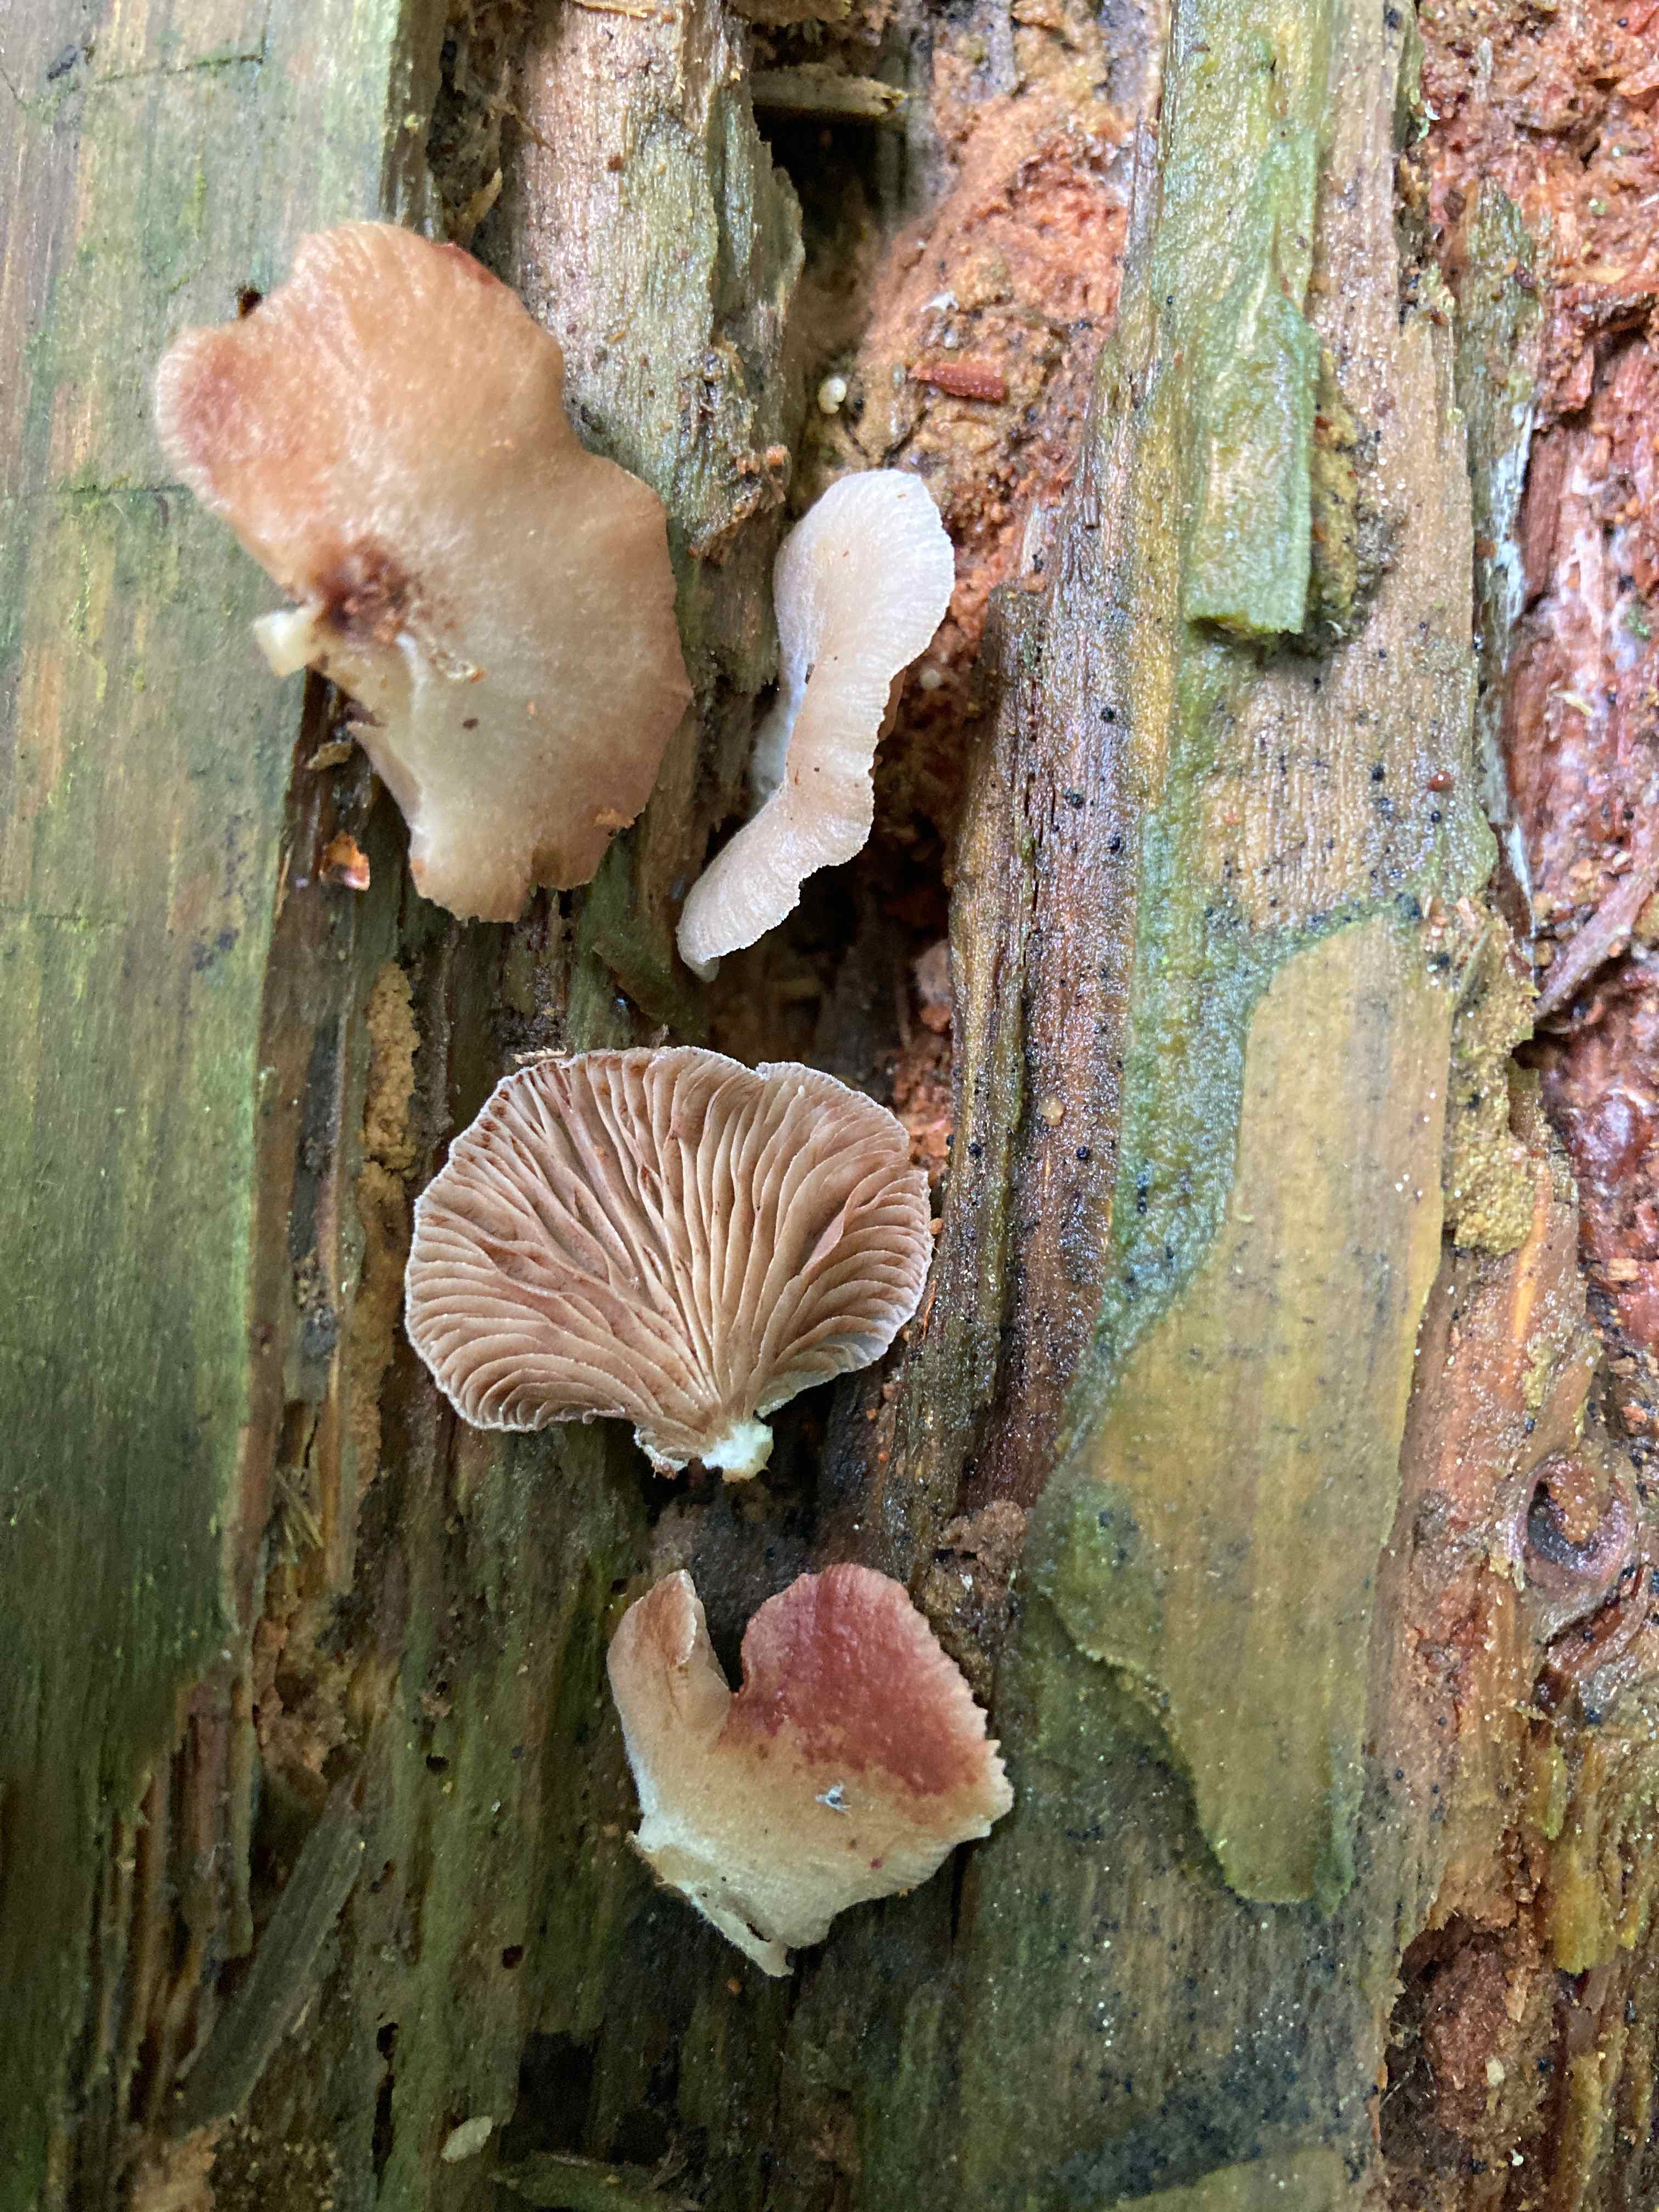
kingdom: Fungi
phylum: Basidiomycota
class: Agaricomycetes
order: Agaricales
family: Crepidotaceae
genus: Crepidotus
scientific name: Crepidotus stenocystis
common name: nåletræs-muslingesvamp
